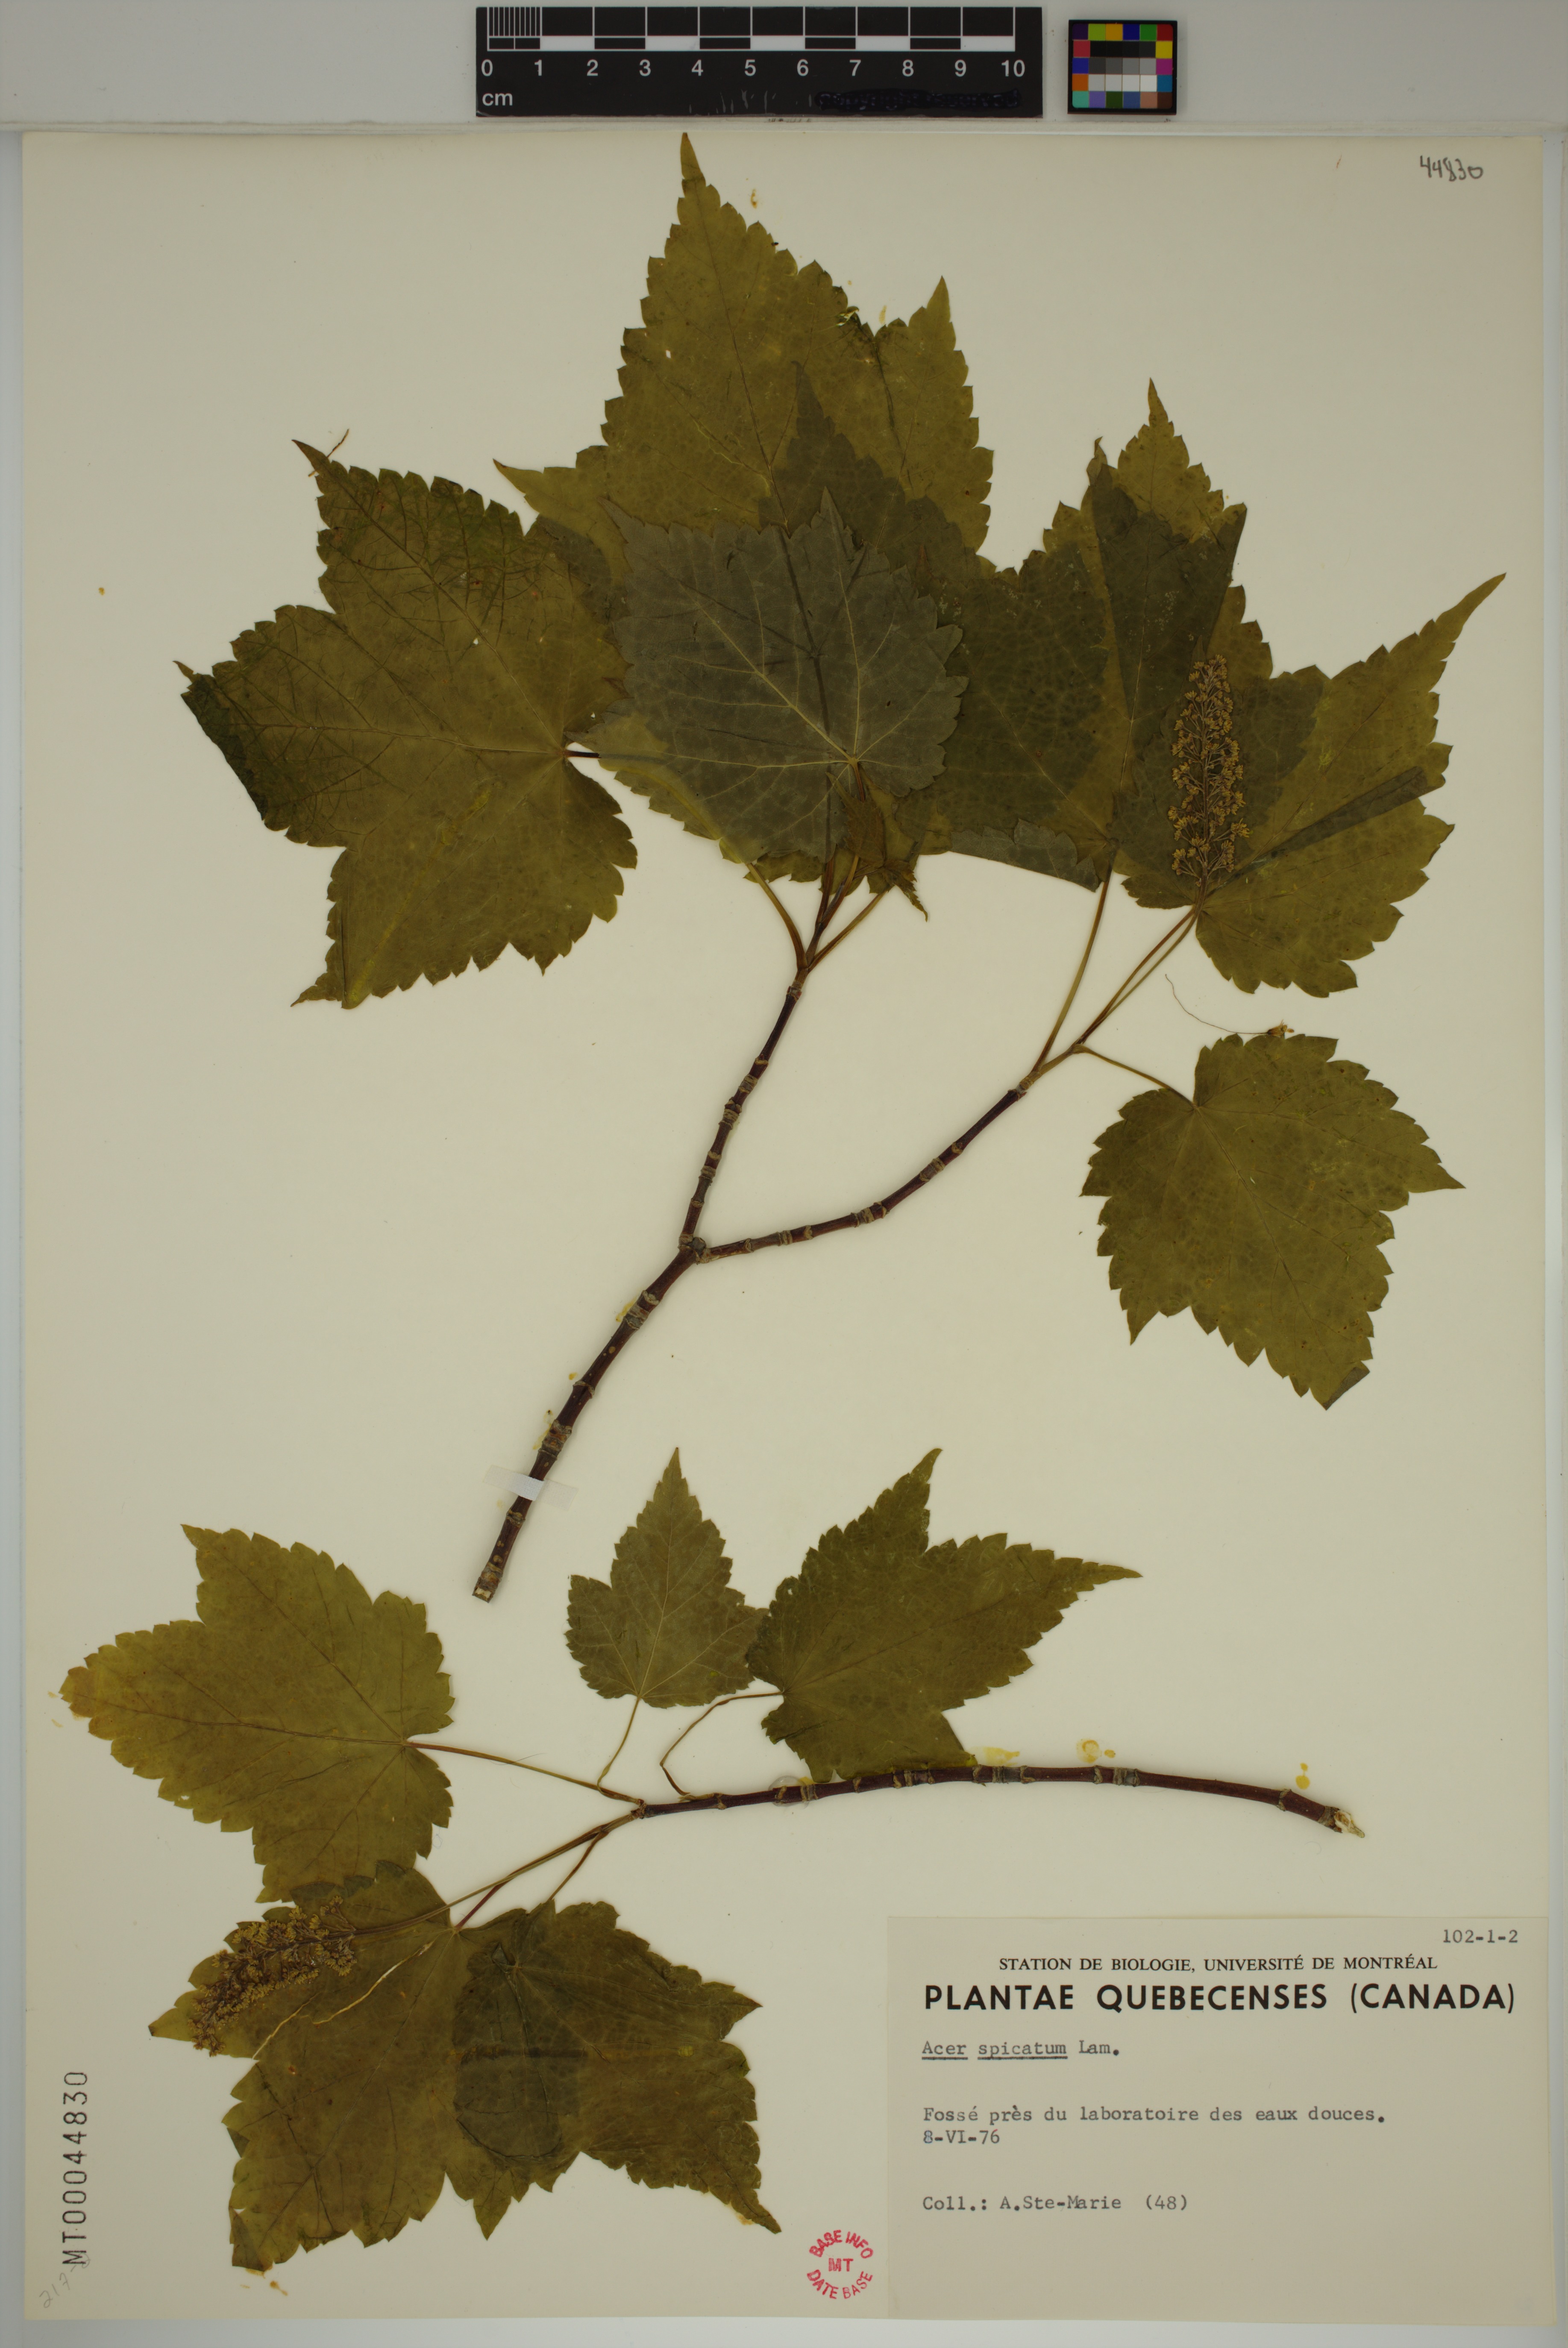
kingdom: Plantae
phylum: Tracheophyta
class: Magnoliopsida
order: Sapindales
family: Sapindaceae
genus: Acer
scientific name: Acer spicatum
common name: Mountain maple
